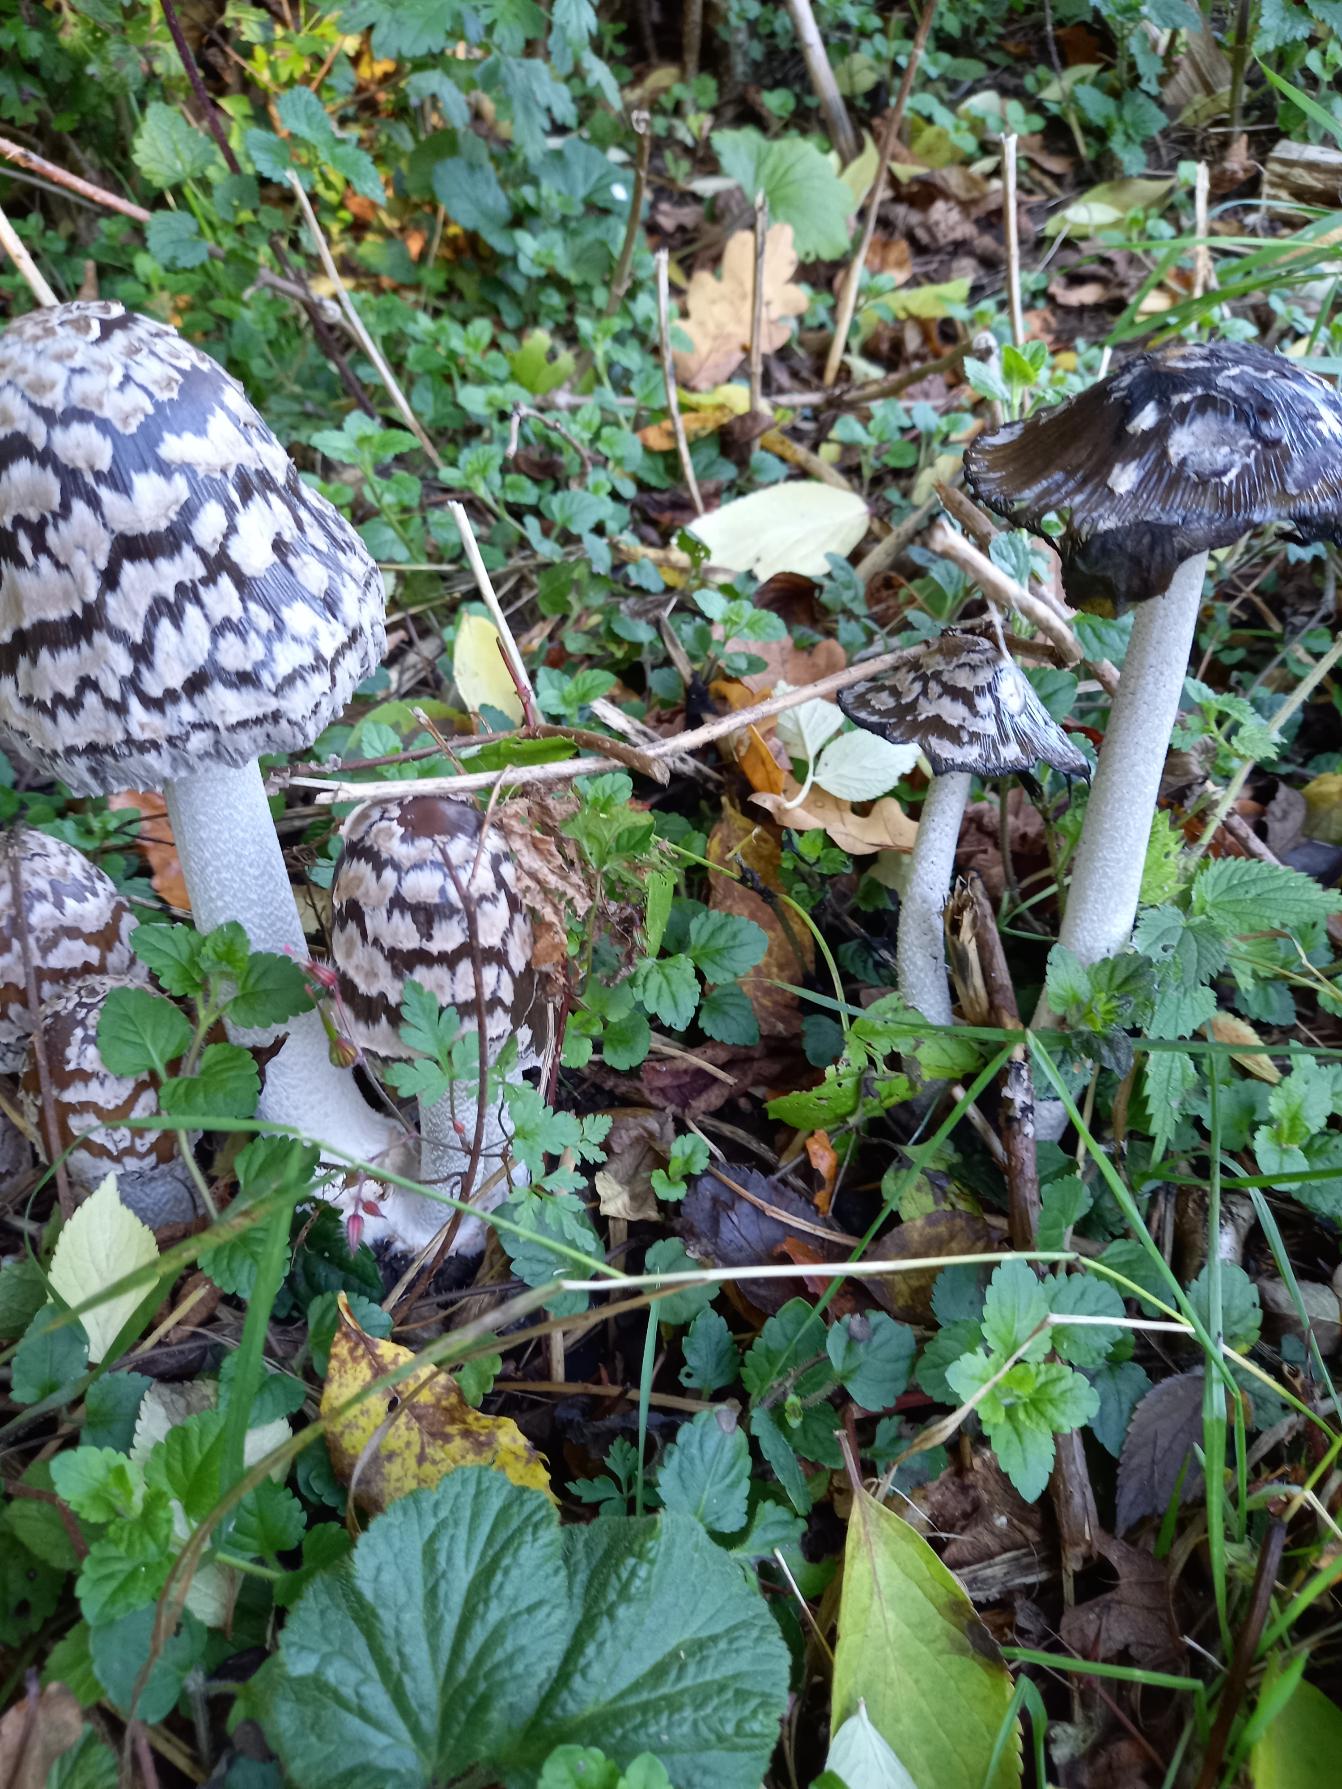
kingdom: Fungi
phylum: Basidiomycota
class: Agaricomycetes
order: Agaricales
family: Psathyrellaceae
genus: Coprinopsis
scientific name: Coprinopsis picacea
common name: Skade-blækhat
